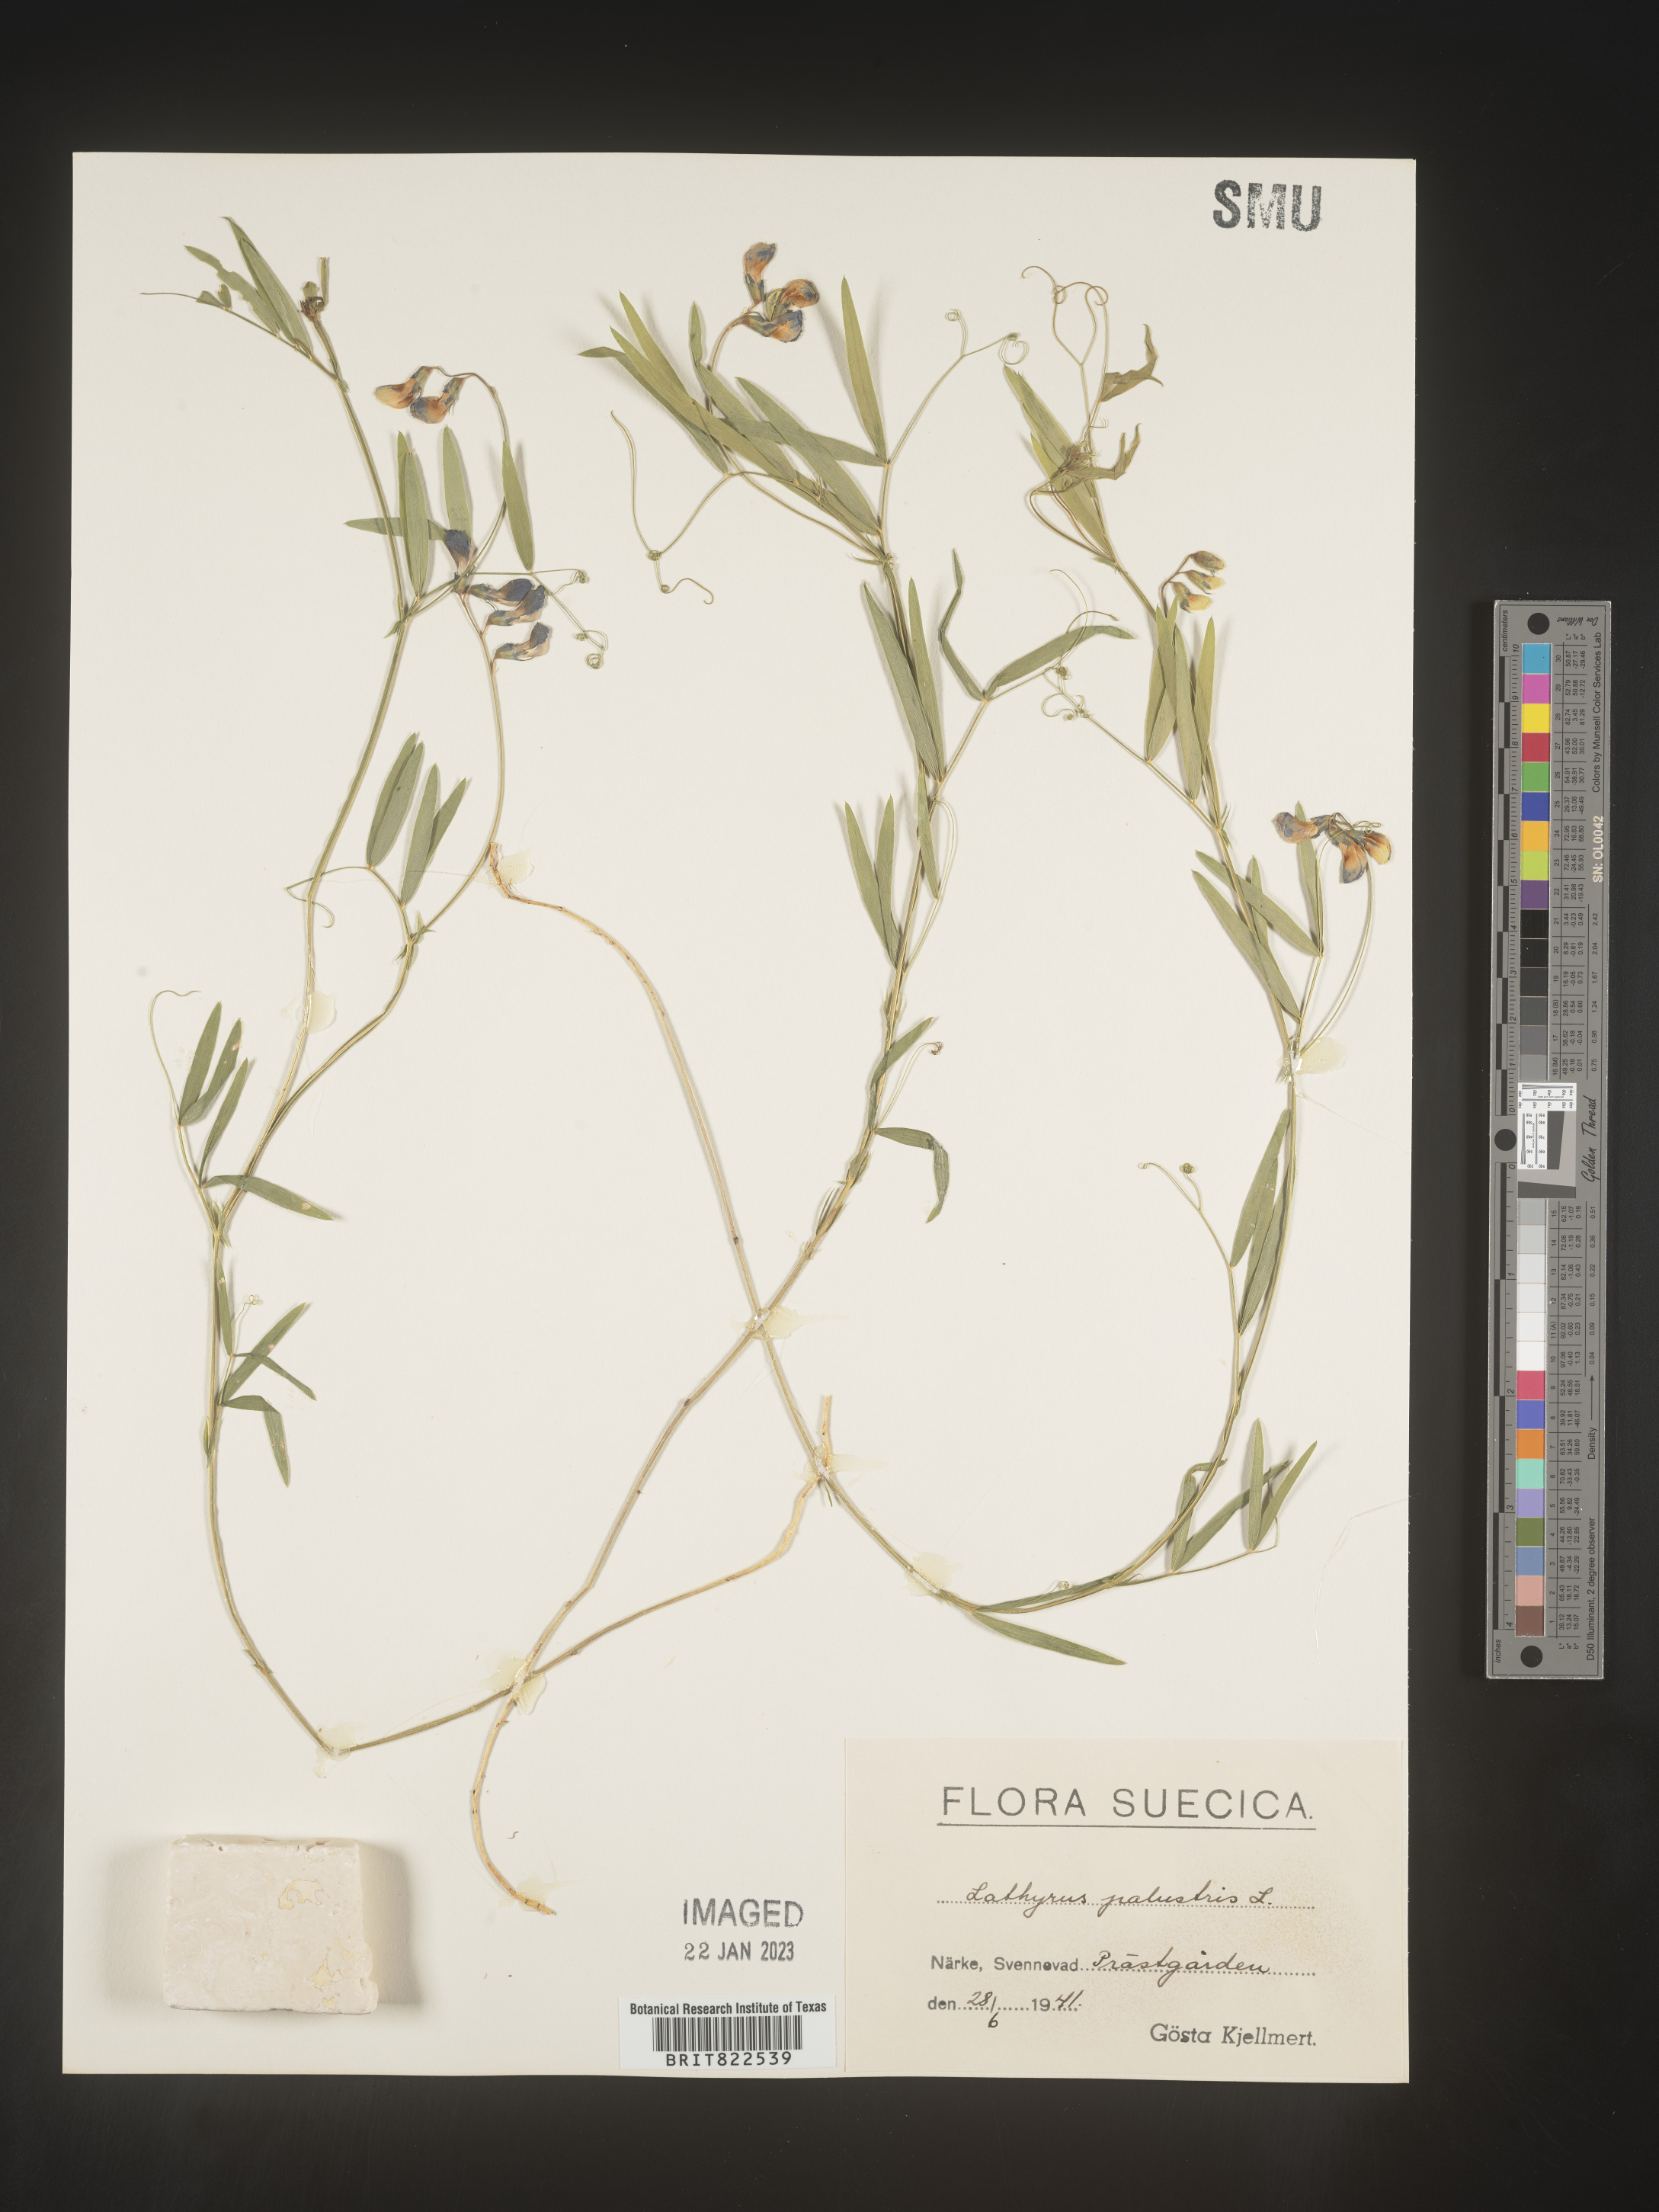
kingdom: Plantae
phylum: Tracheophyta
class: Magnoliopsida
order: Fabales
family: Fabaceae
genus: Lathyrus
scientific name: Lathyrus
